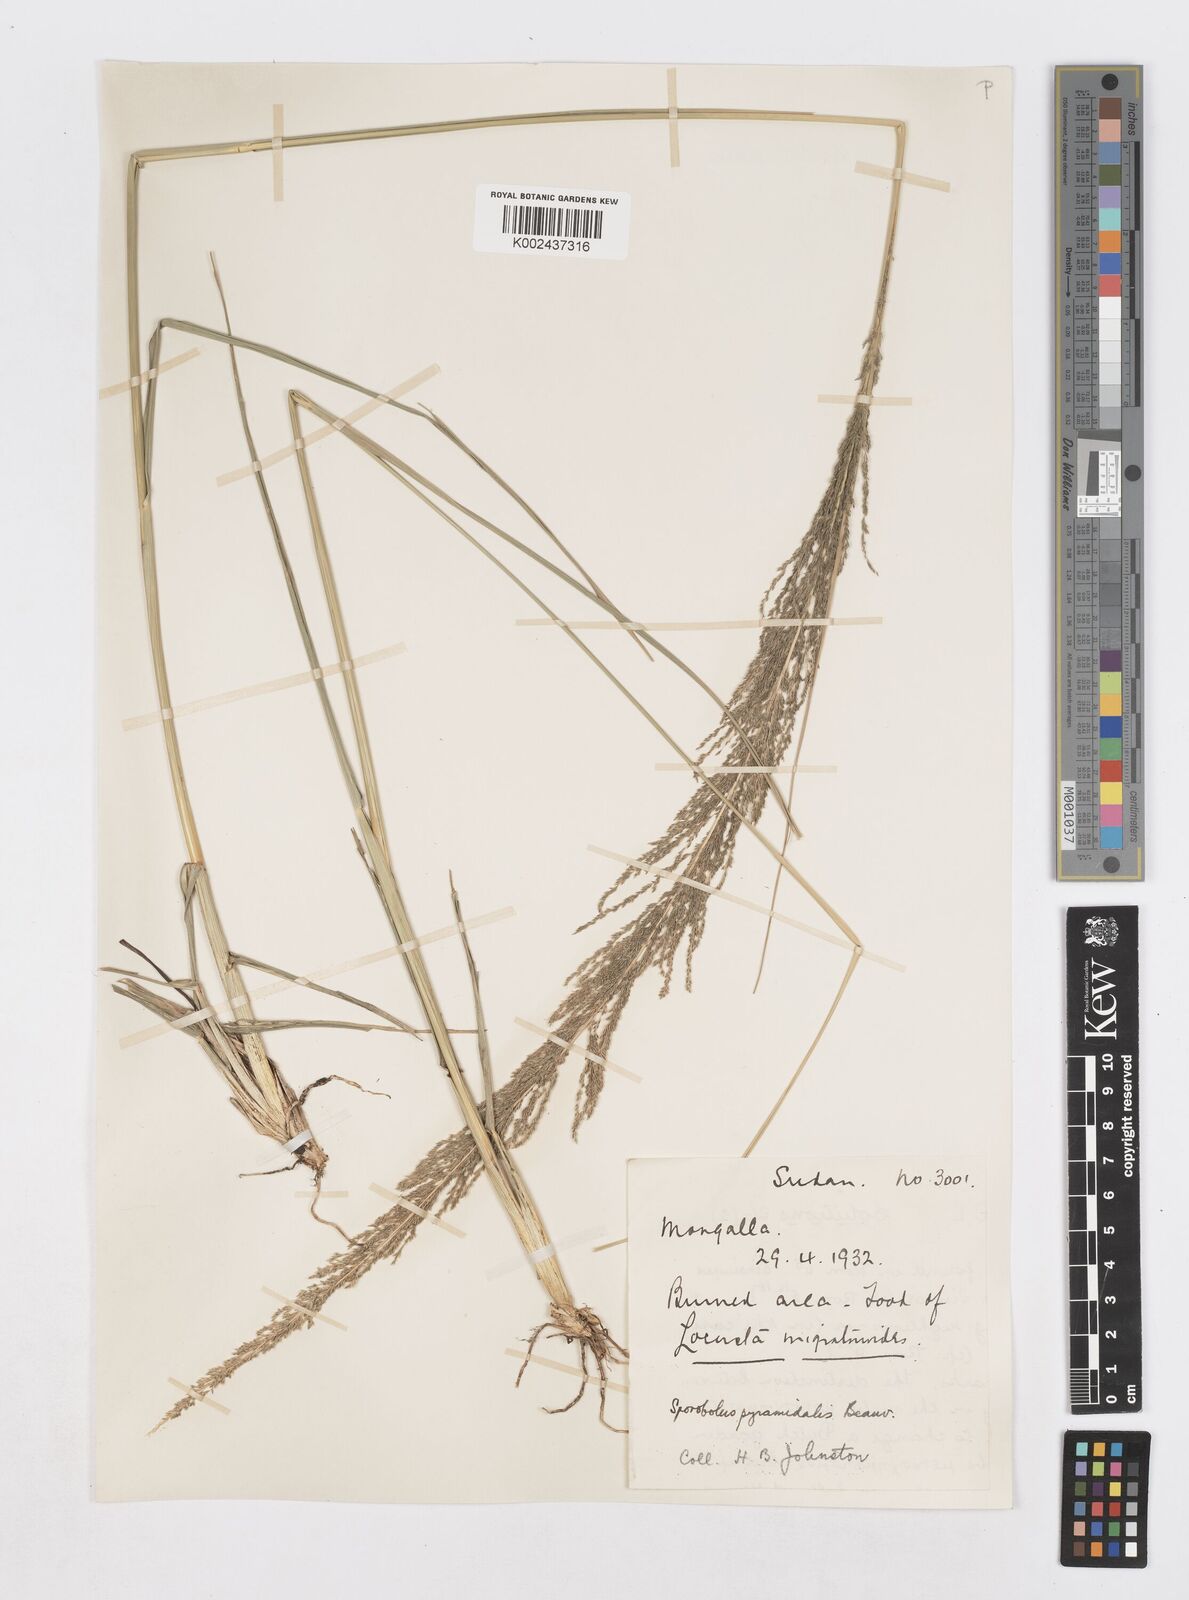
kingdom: Plantae
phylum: Tracheophyta
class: Liliopsida
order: Poales
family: Poaceae
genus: Sporobolus
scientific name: Sporobolus pyramidalis
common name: West indian dropseed
